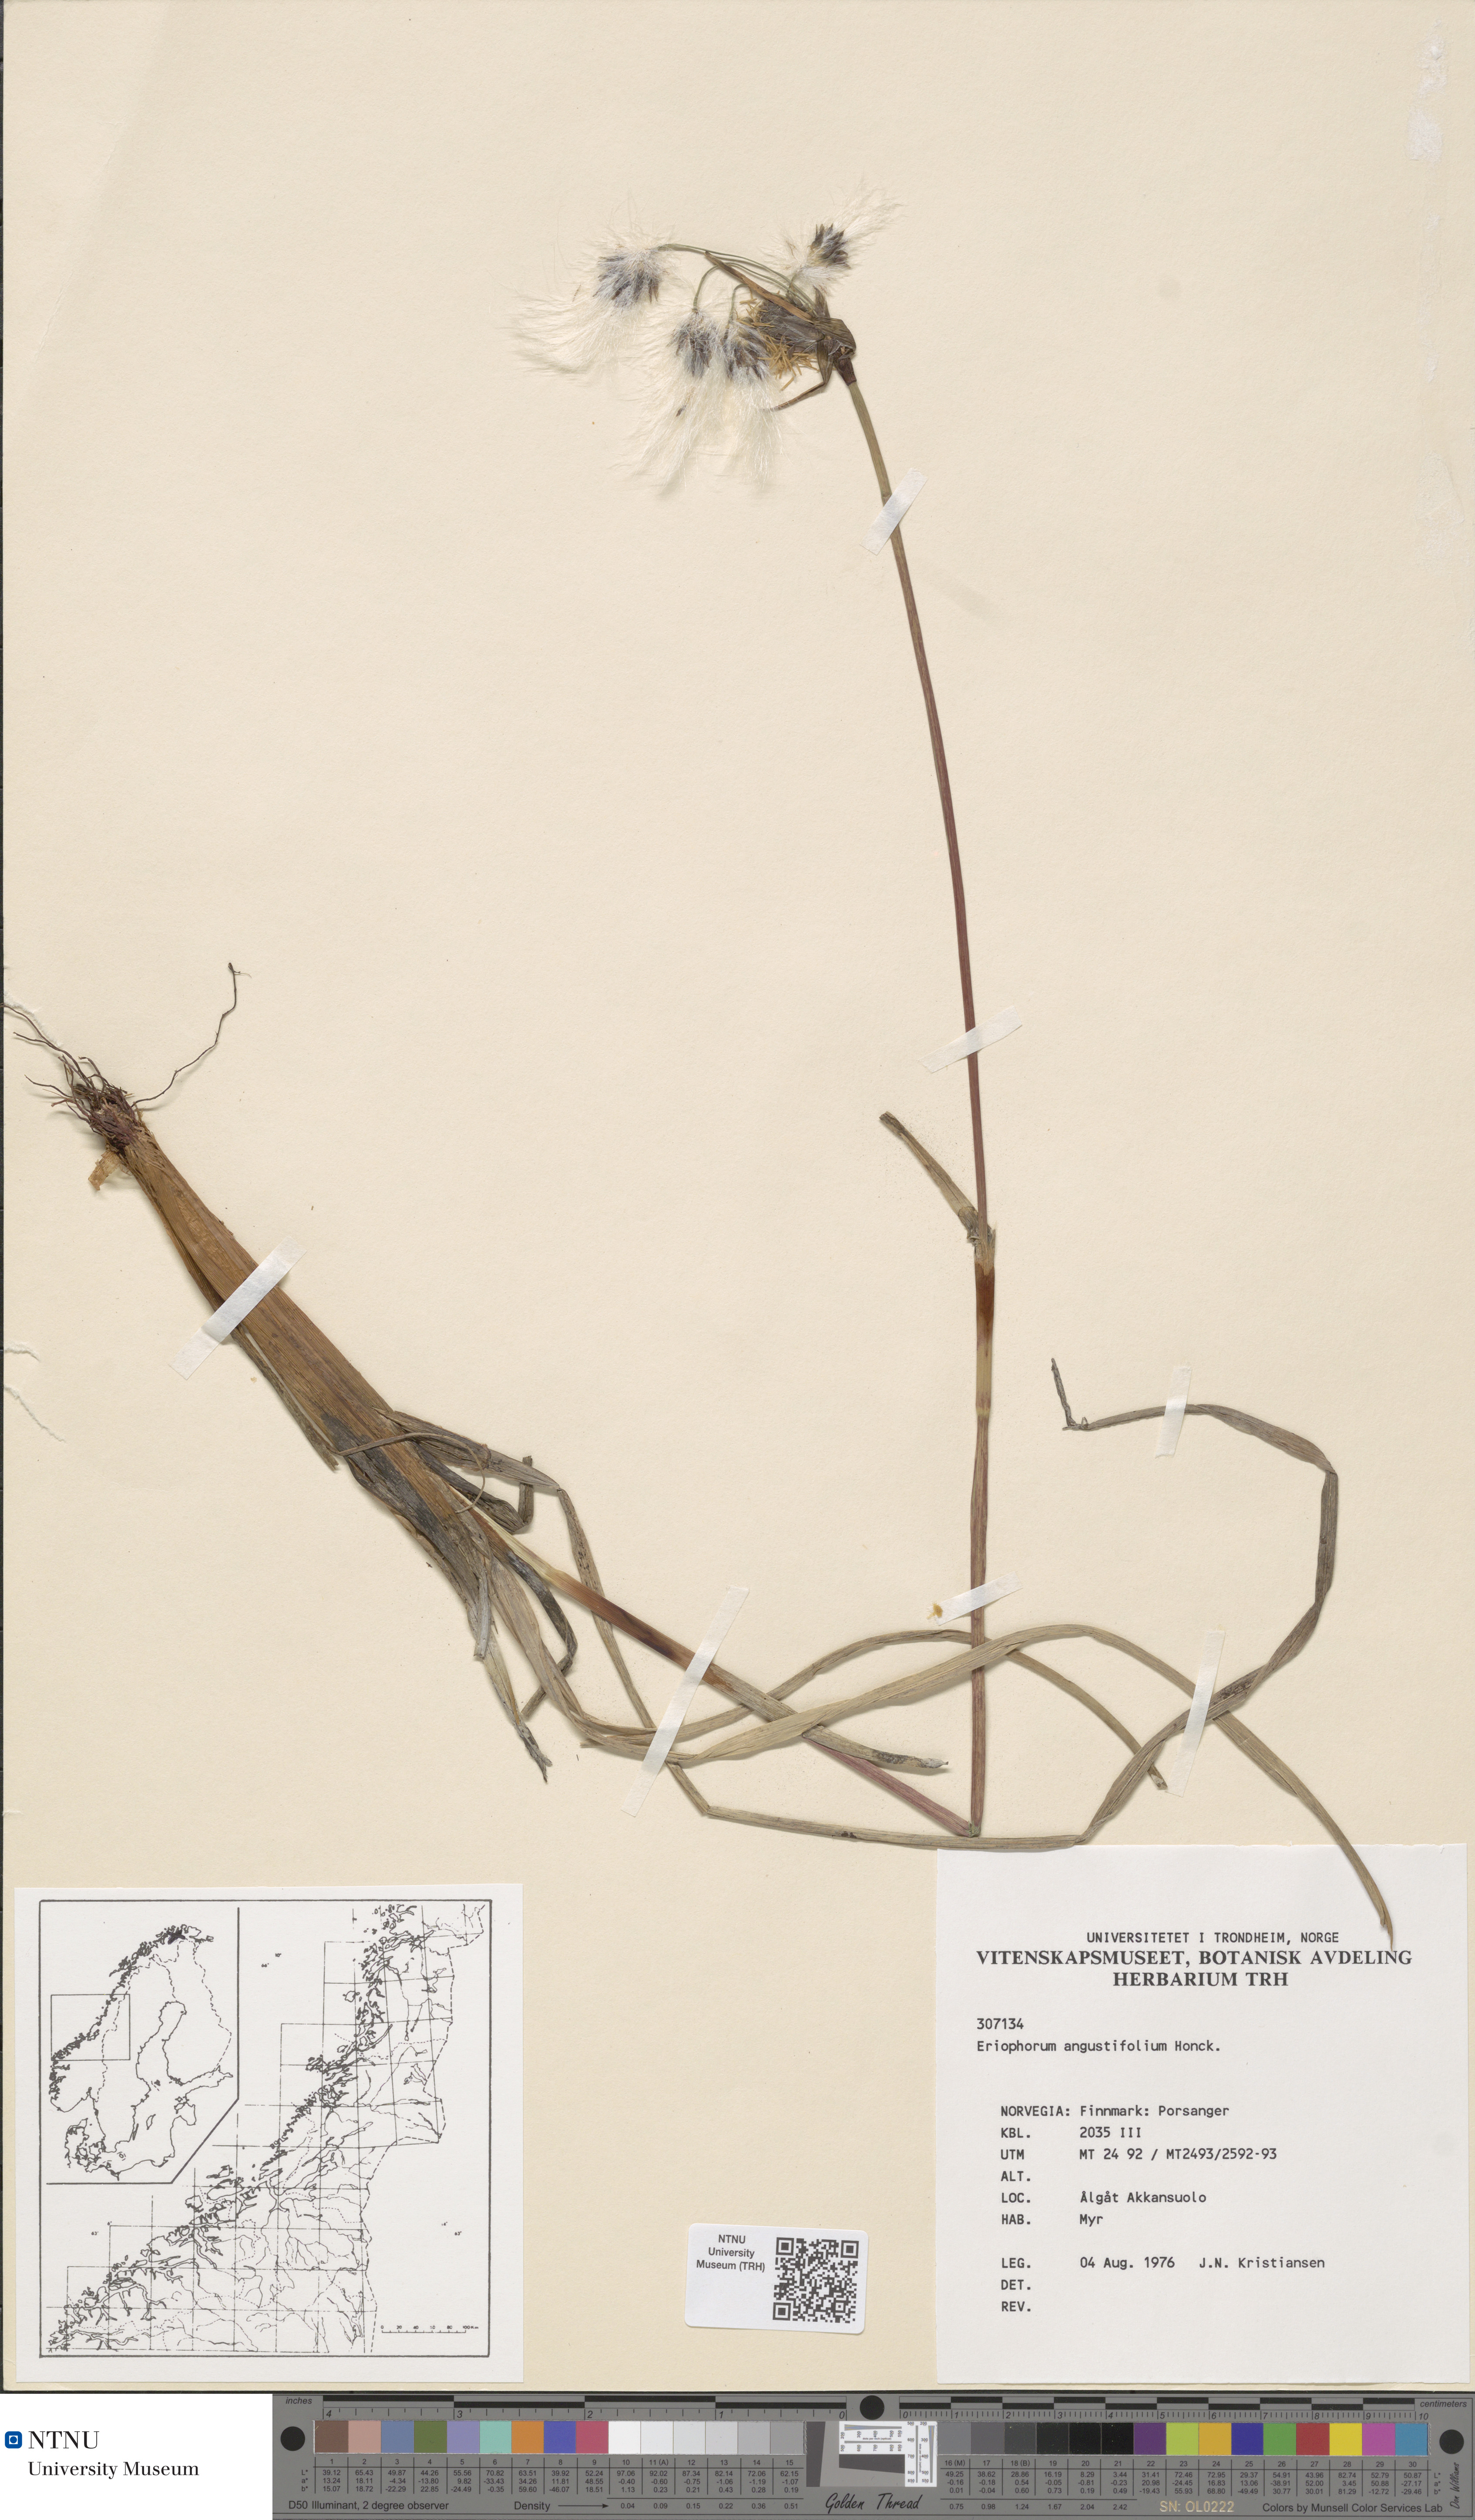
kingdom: Plantae
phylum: Tracheophyta
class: Liliopsida
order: Poales
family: Cyperaceae
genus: Eriophorum
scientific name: Eriophorum angustifolium
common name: Common cottongrass
